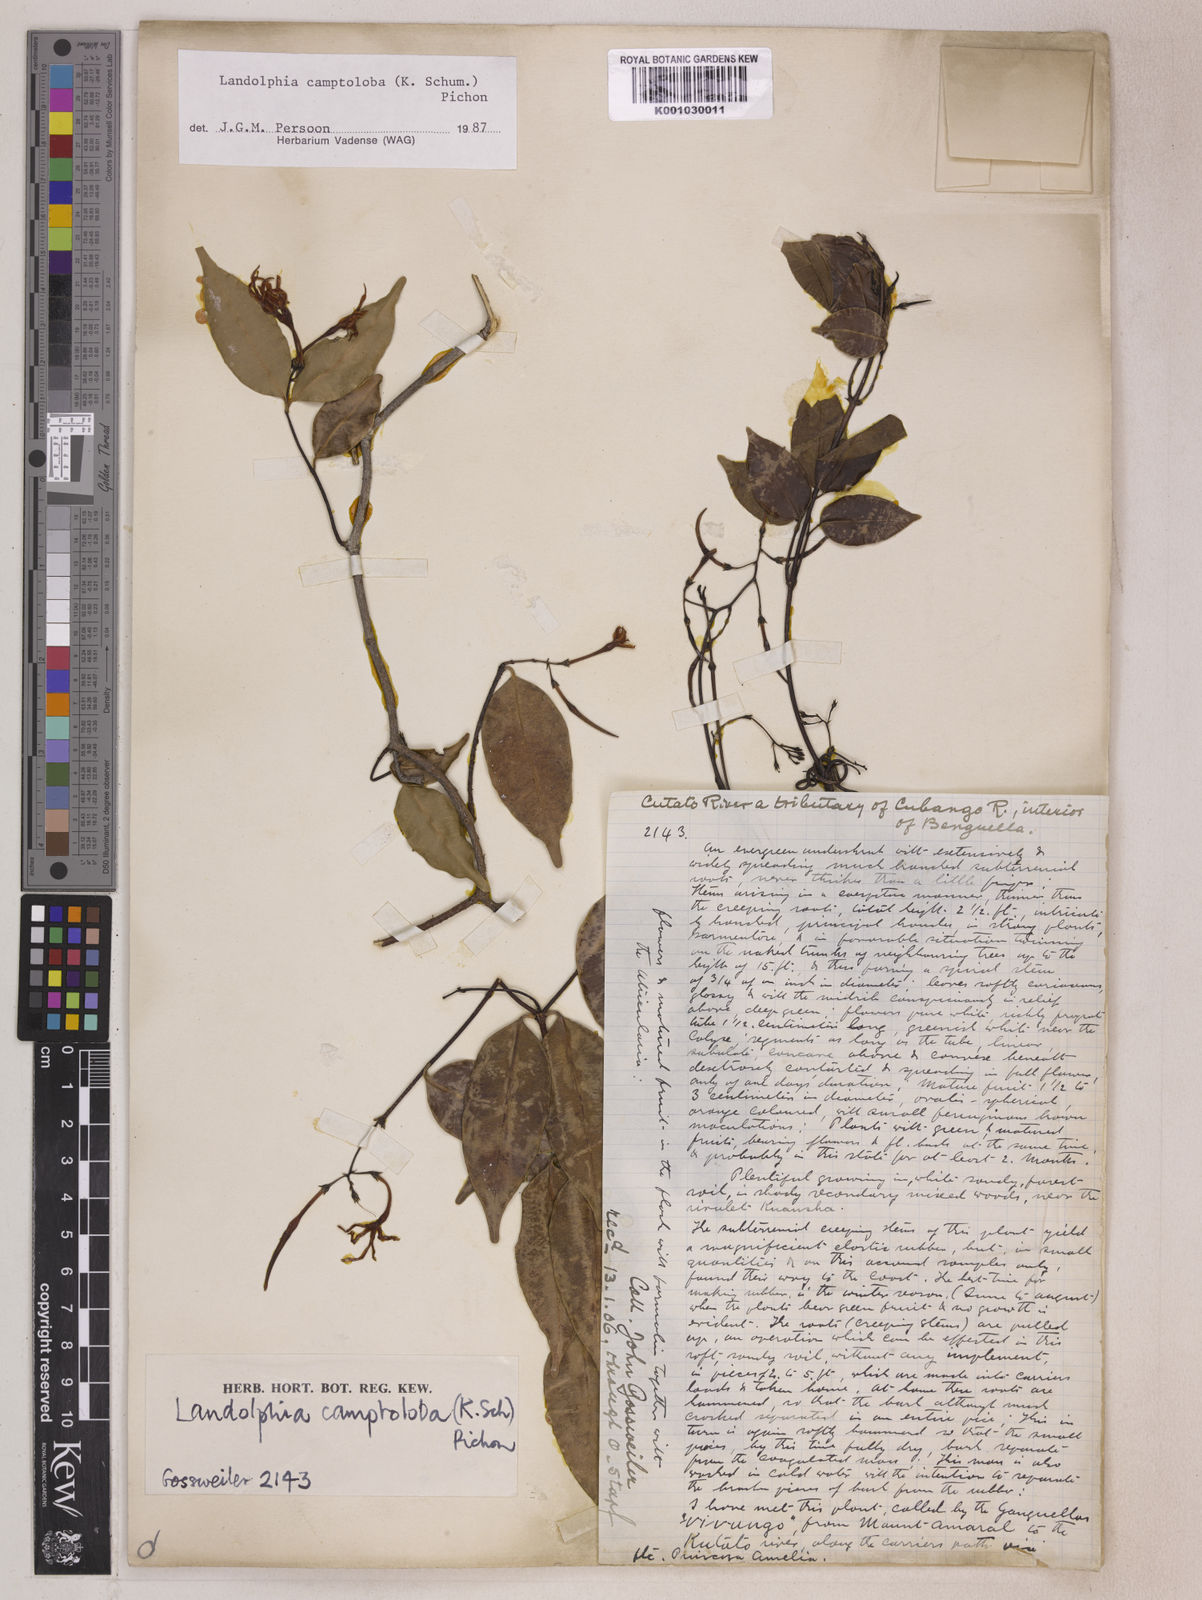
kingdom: Plantae
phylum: Tracheophyta
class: Magnoliopsida
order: Gentianales
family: Apocynaceae
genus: Landolphia
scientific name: Landolphia camptoloba
